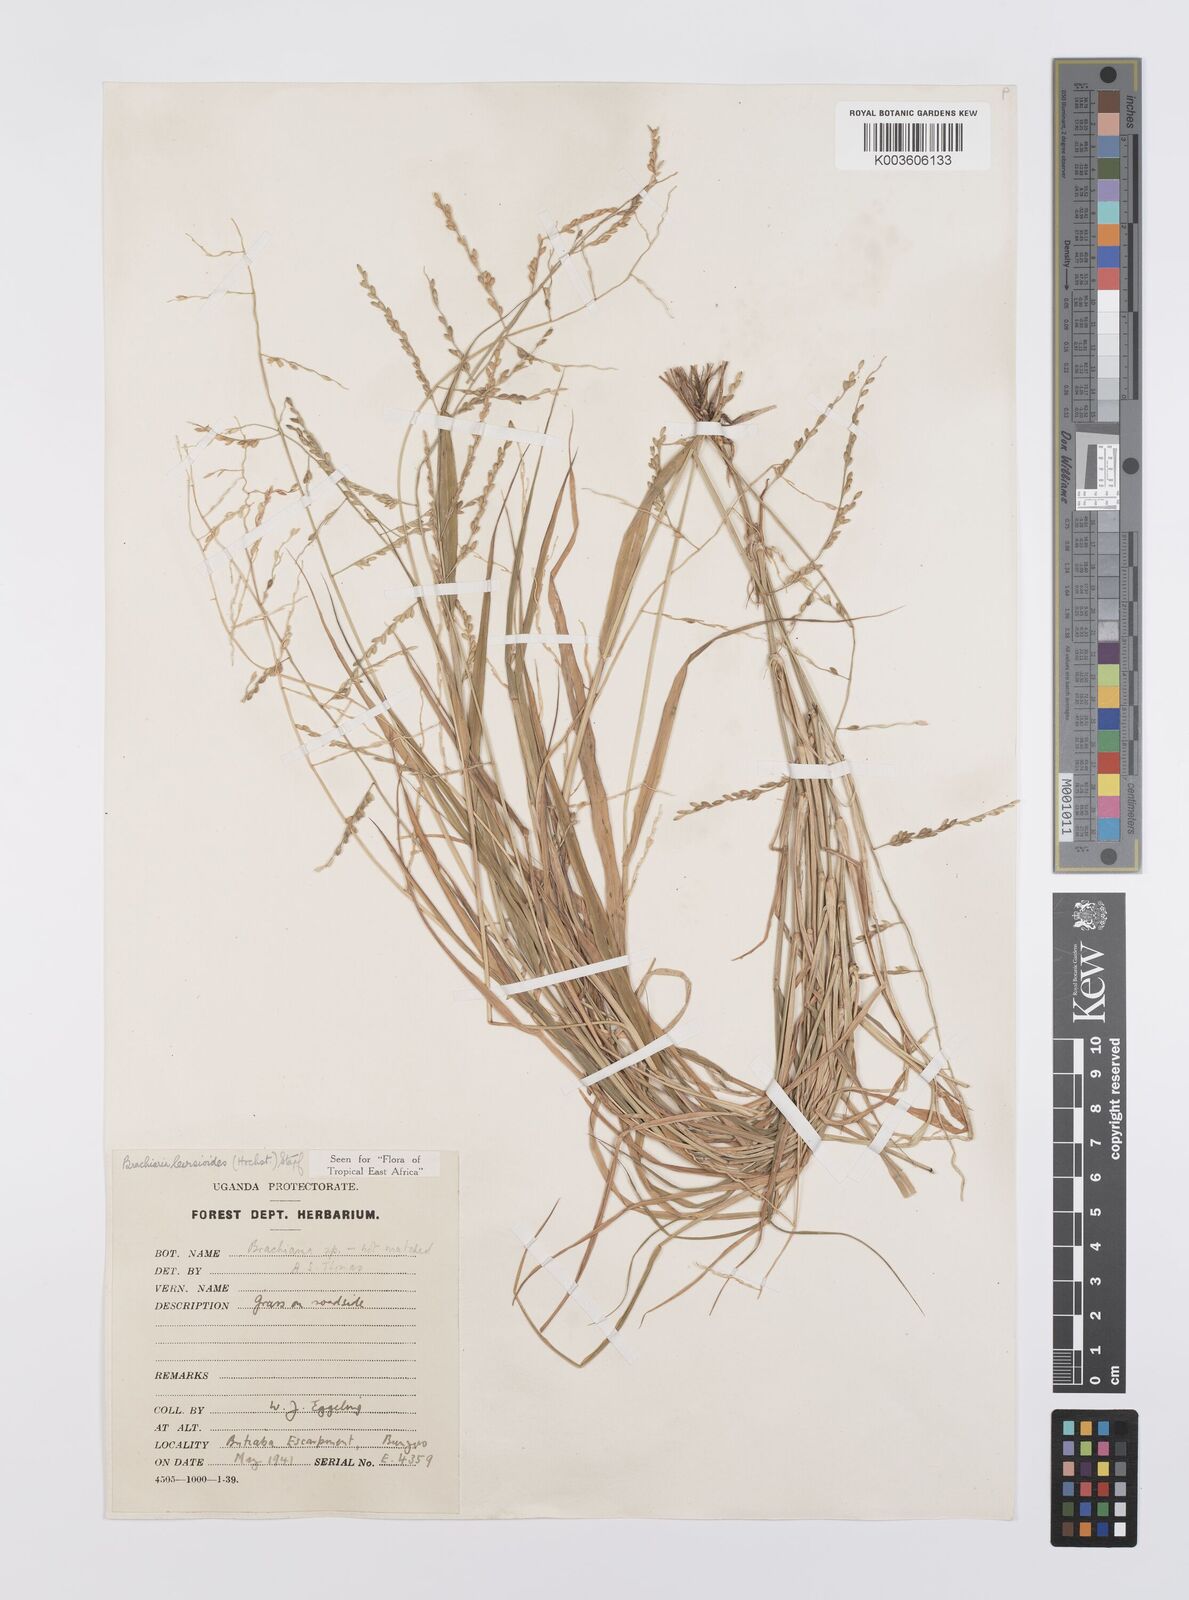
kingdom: Plantae
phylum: Tracheophyta
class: Liliopsida
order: Poales
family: Poaceae
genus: Urochloa
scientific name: Urochloa leersioides
